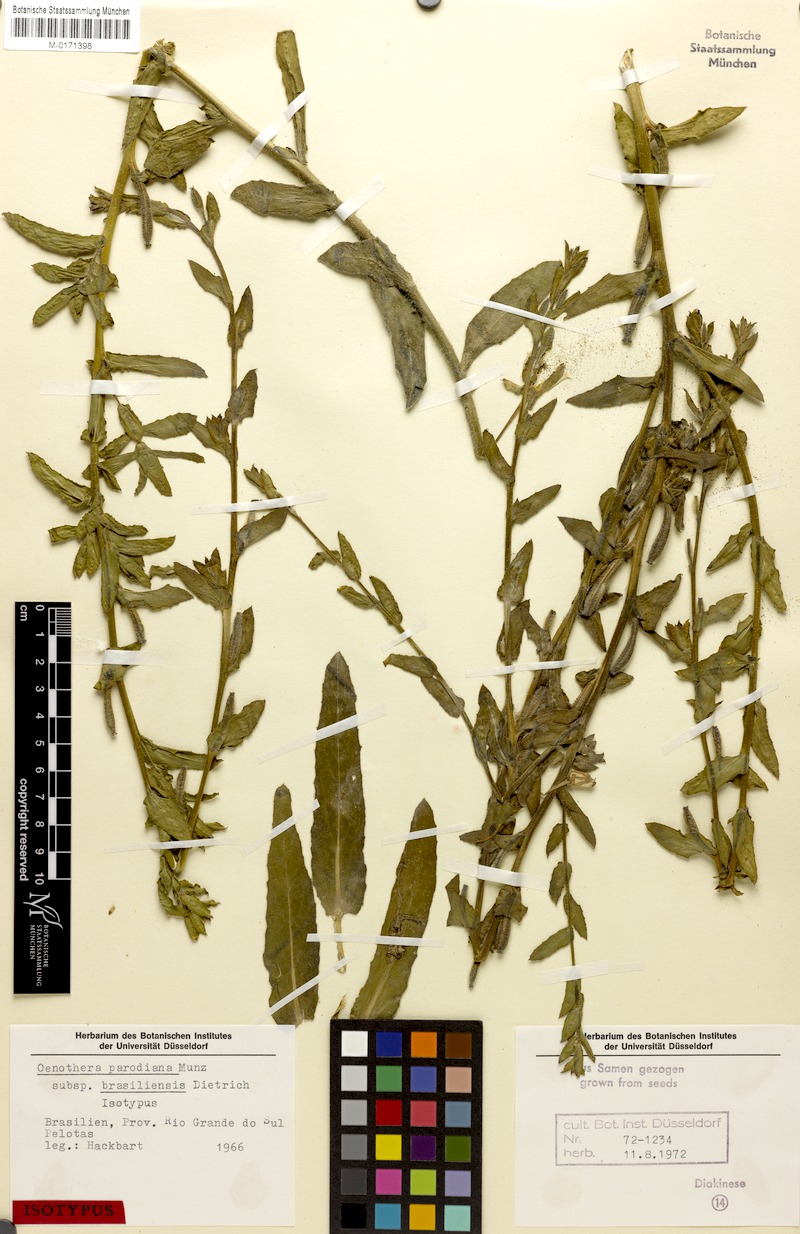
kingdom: Plantae
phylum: Tracheophyta
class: Magnoliopsida
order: Myrtales
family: Onagraceae
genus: Oenothera
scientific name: Oenothera parodiana
